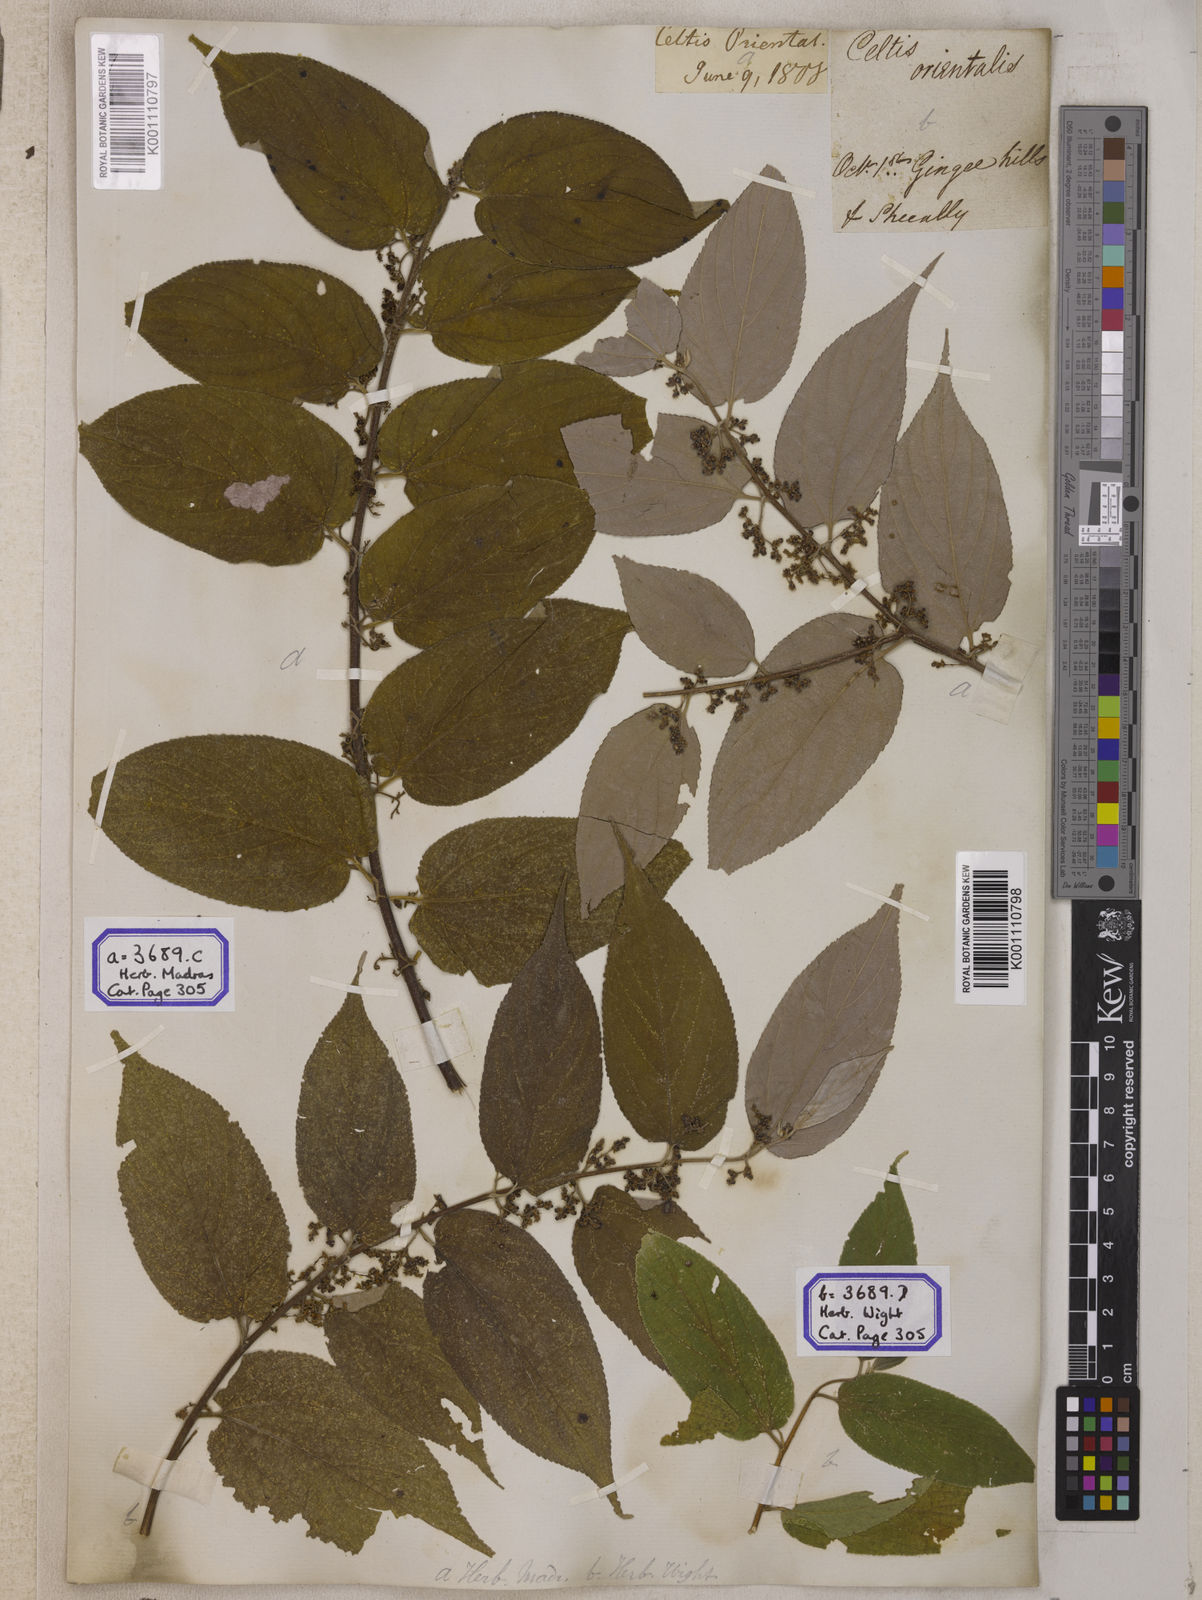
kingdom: Plantae
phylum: Tracheophyta
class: Magnoliopsida
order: Rosales
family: Cannabaceae
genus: Trema
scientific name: Trema orientale
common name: Indian charcoal tree
